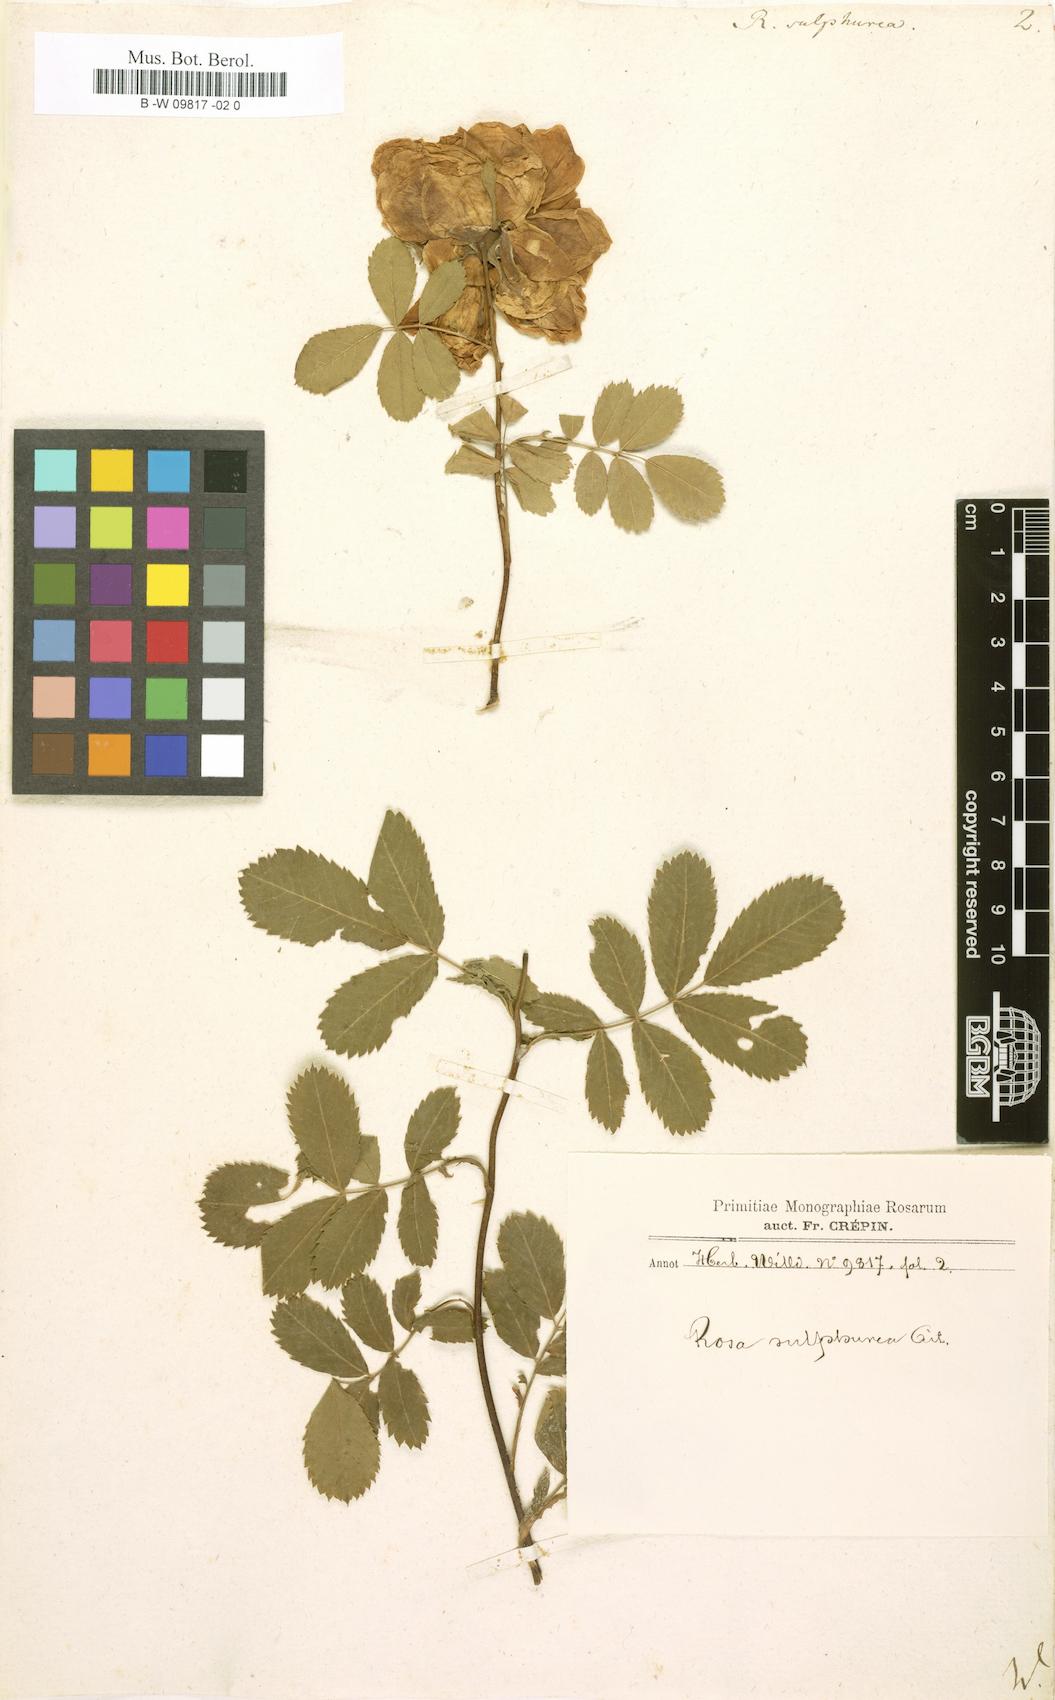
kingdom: Plantae
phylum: Tracheophyta
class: Magnoliopsida
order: Rosales
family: Rosaceae
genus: Rosa
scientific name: Rosa hemisphaerica
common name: Sulphur rose
